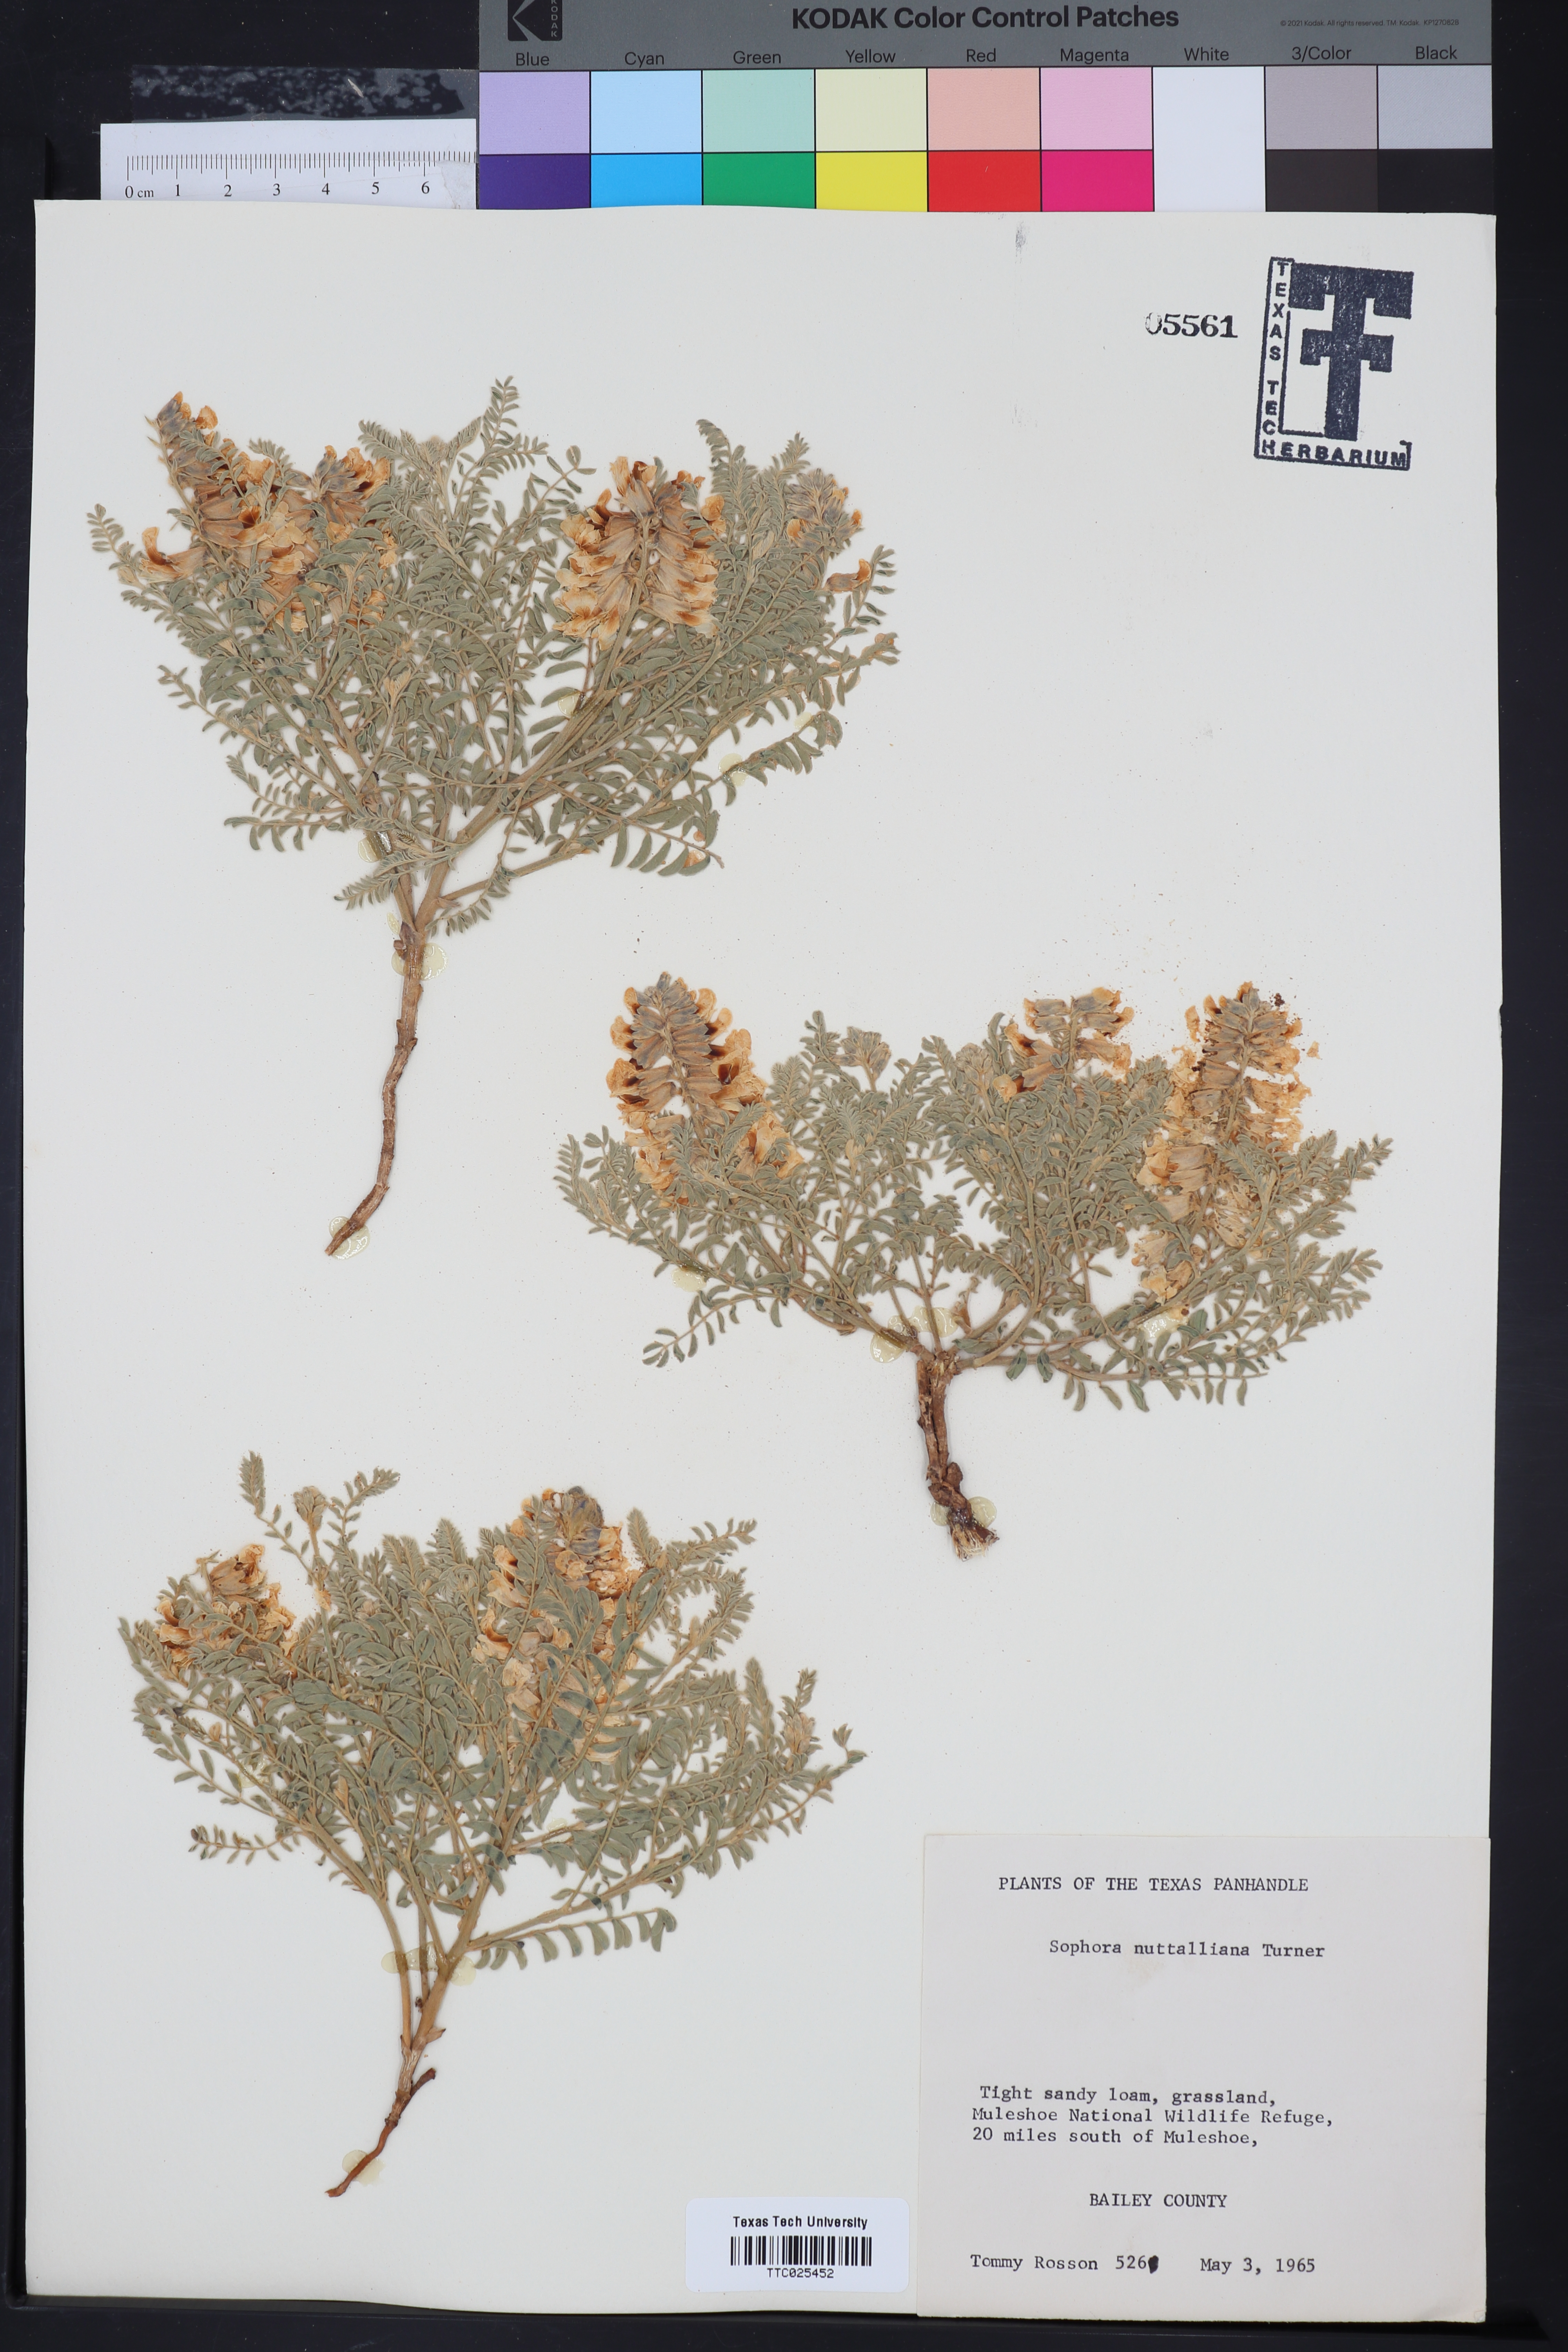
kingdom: Plantae
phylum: Tracheophyta
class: Magnoliopsida
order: Fabales
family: Fabaceae
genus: Sophora
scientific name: Sophora nuttalliana
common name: Silky sophora
